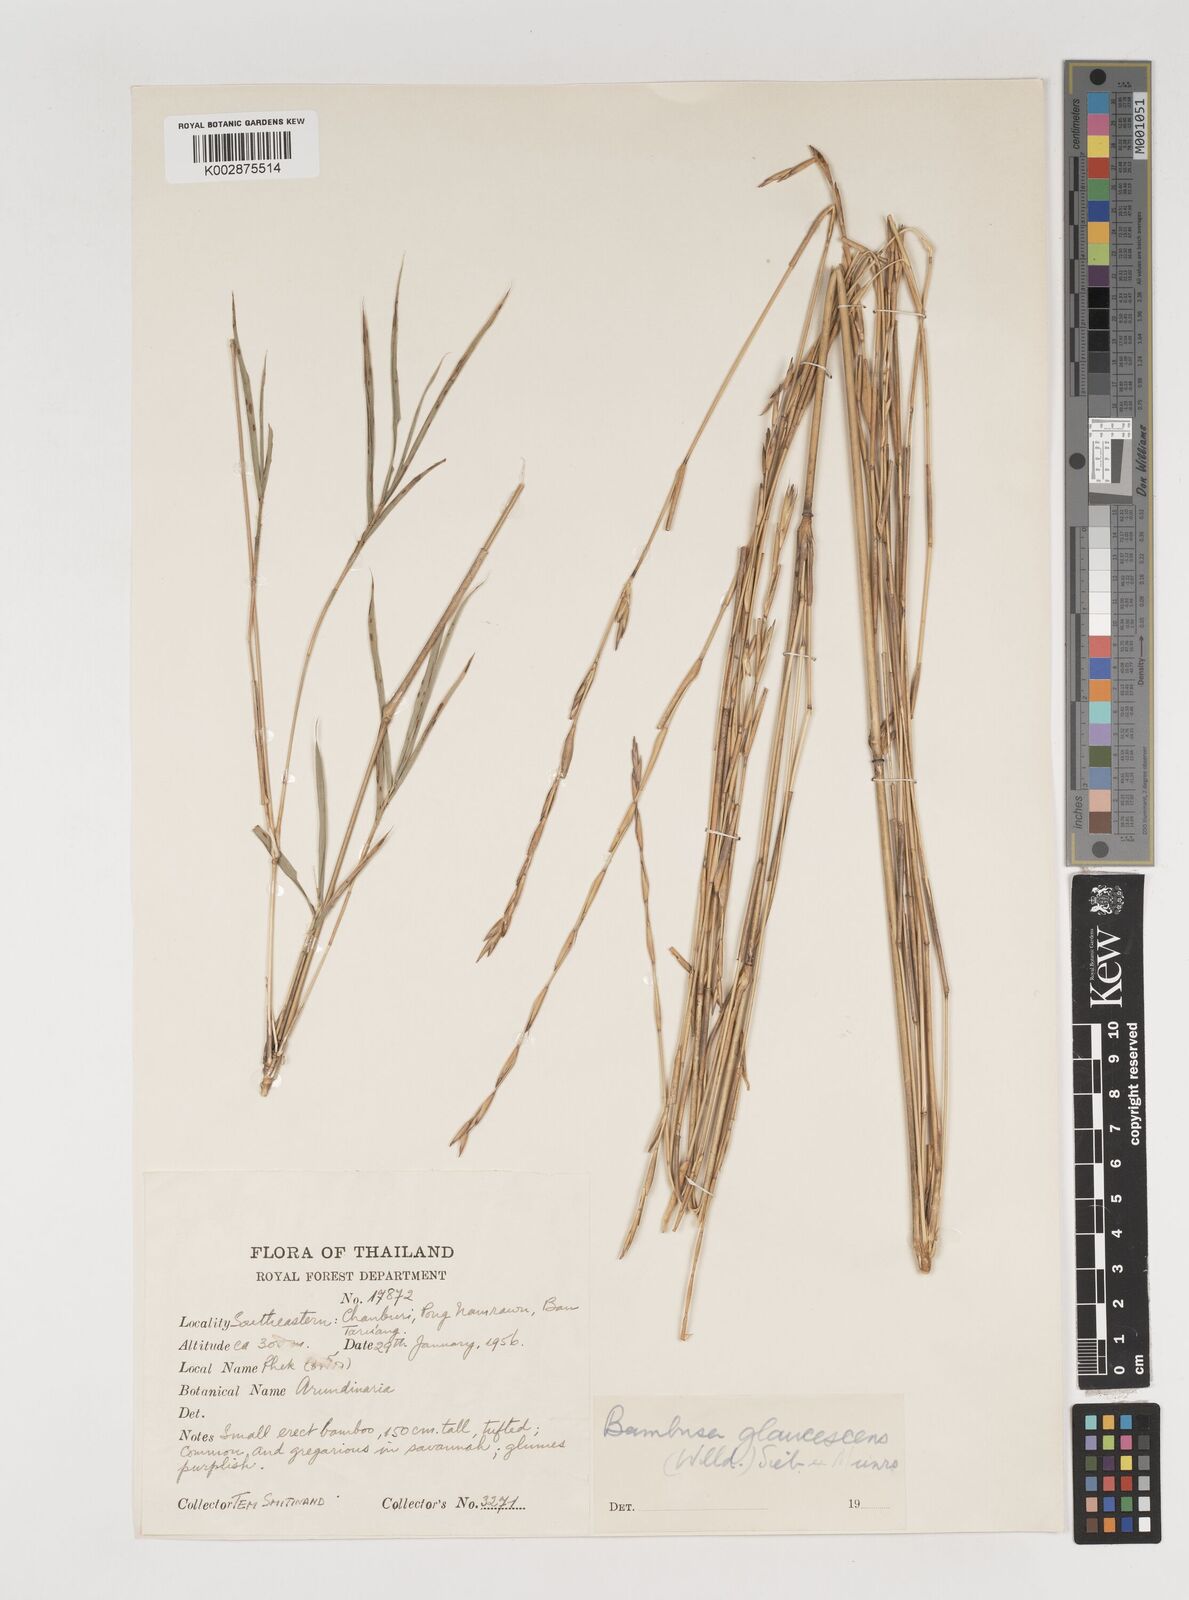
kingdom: Plantae
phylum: Tracheophyta
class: Liliopsida
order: Poales
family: Poaceae
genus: Vietnamosasa
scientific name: Vietnamosasa
